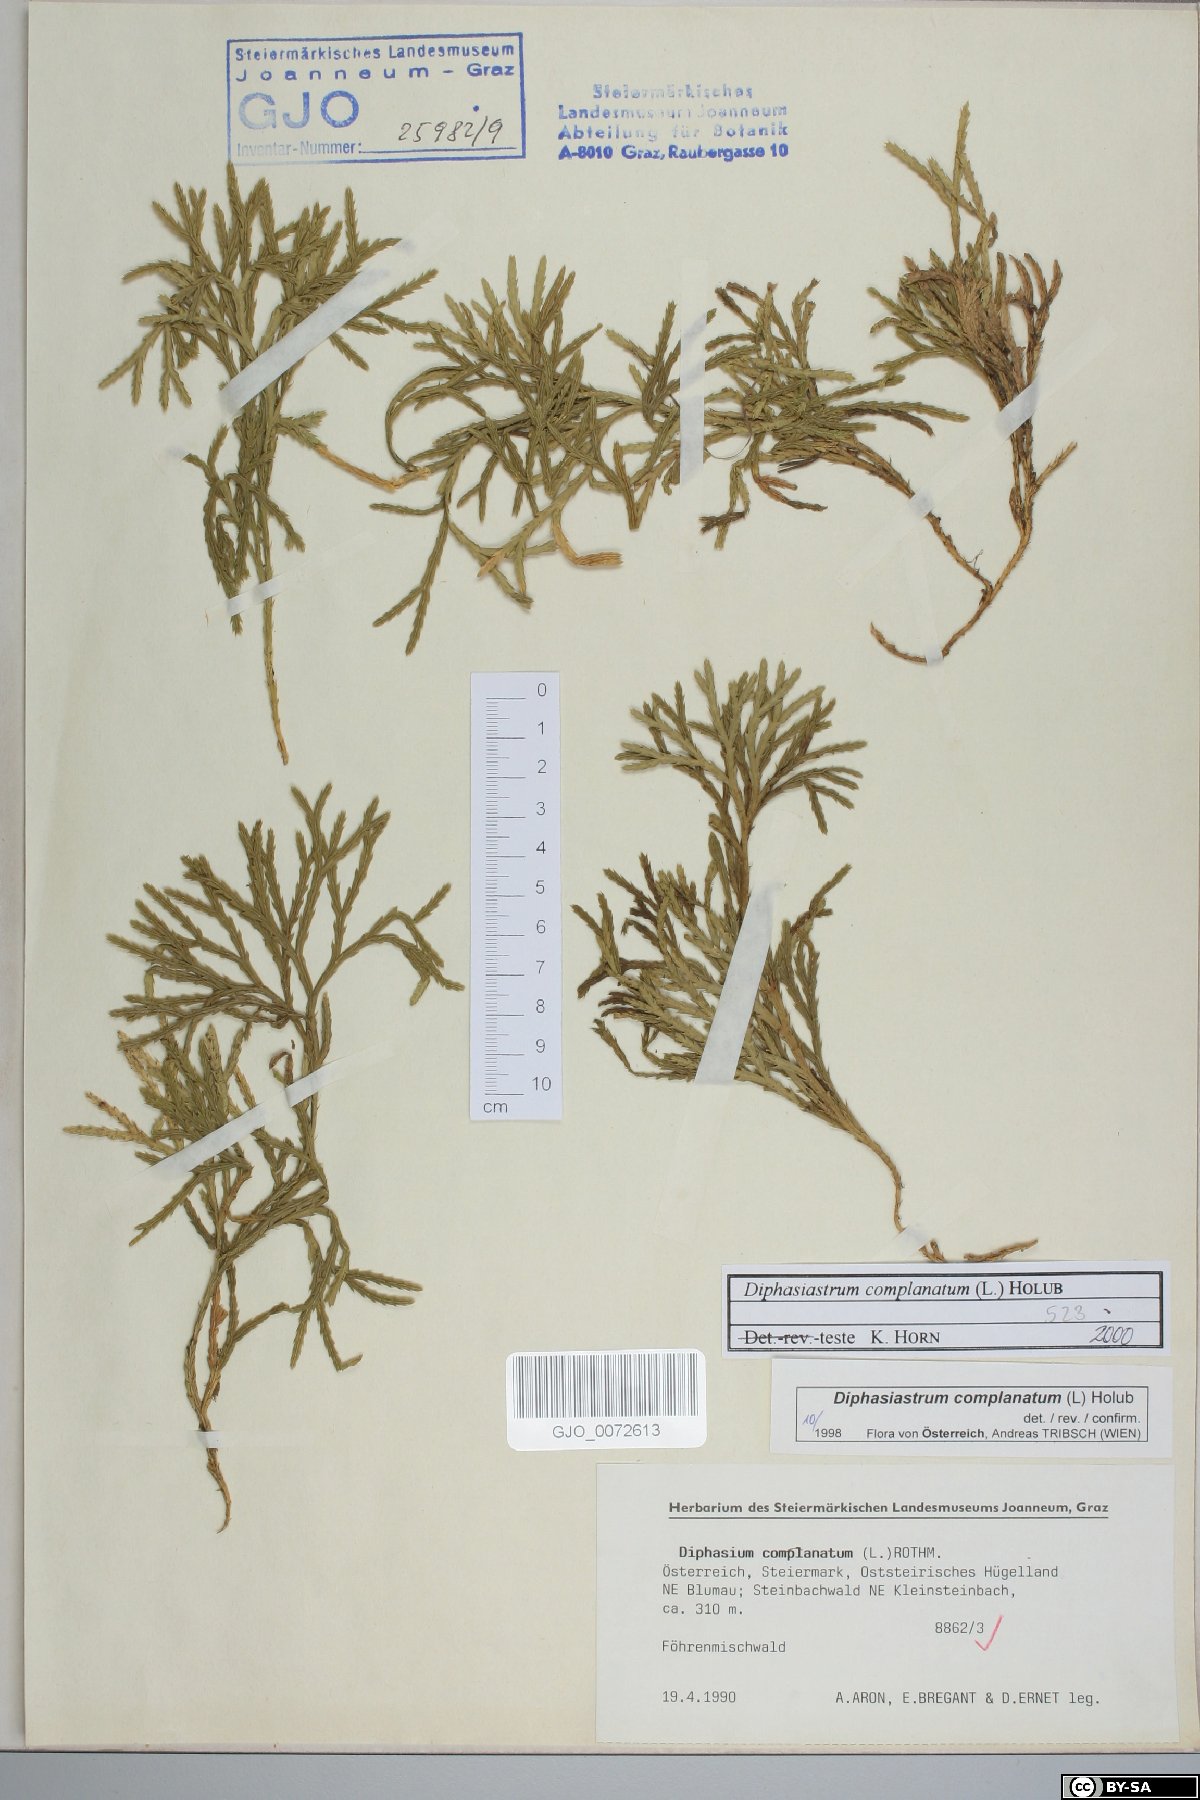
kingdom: Plantae
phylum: Tracheophyta
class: Lycopodiopsida
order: Lycopodiales
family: Lycopodiaceae
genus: Diphasiastrum
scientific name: Diphasiastrum complanatum
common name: Northern running-pine
